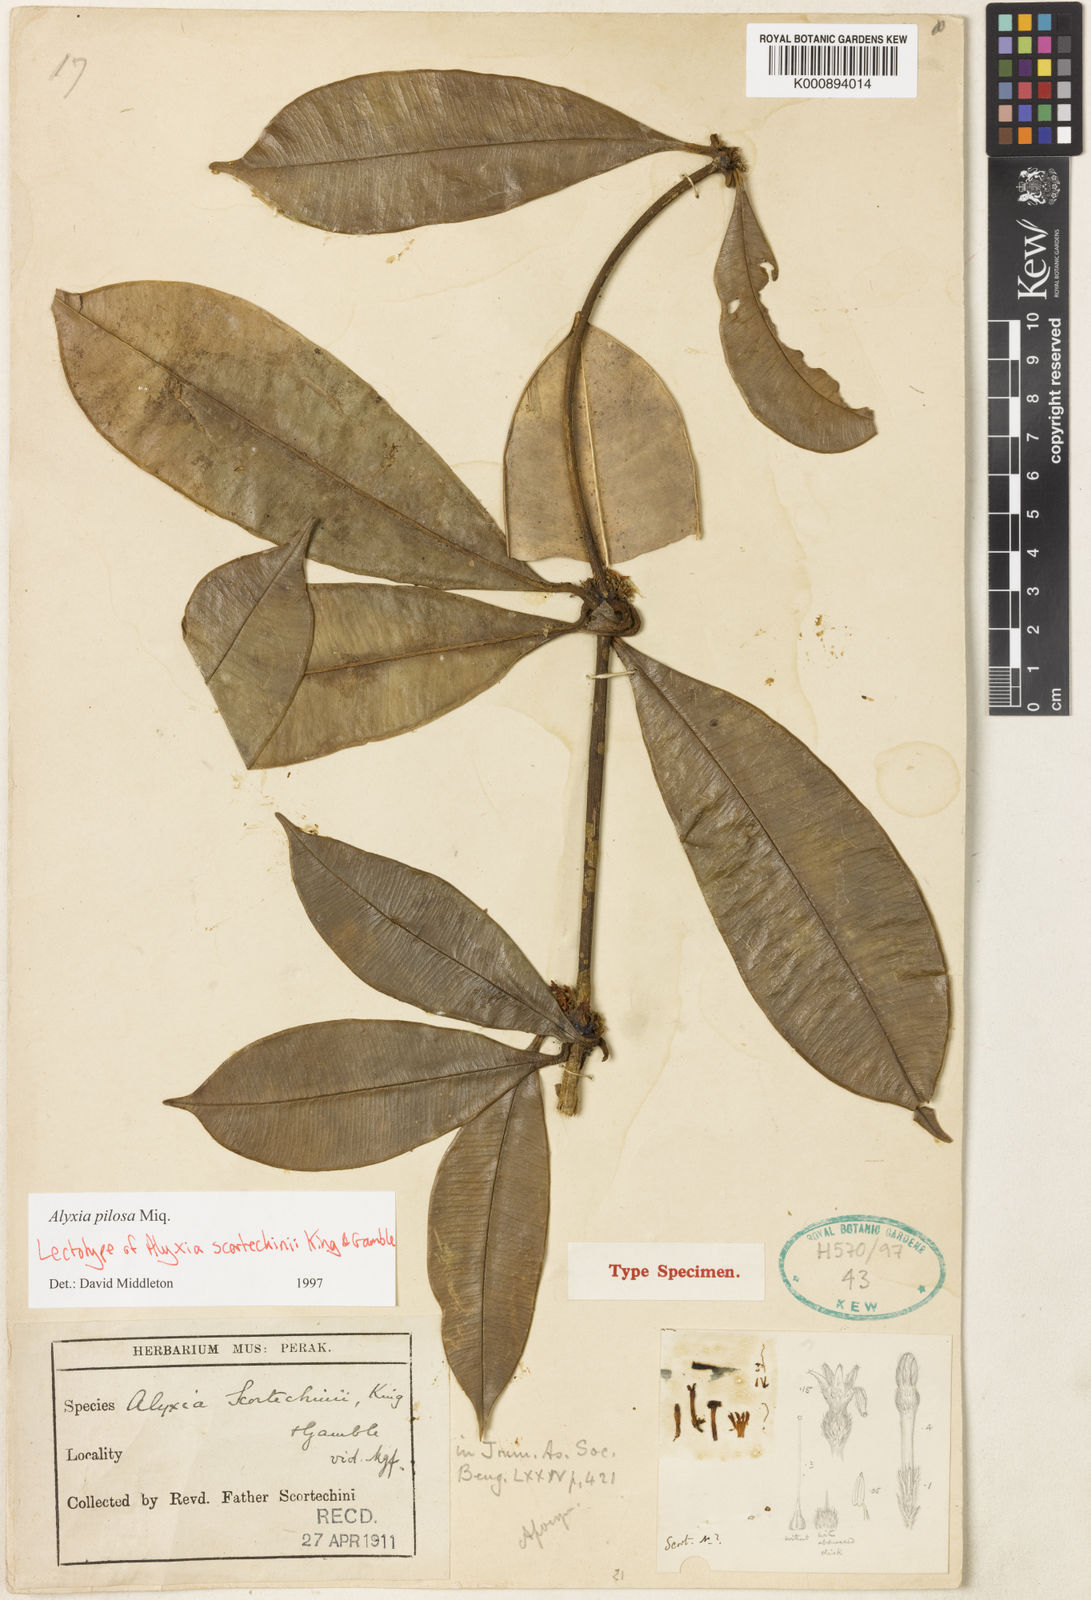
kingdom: Plantae
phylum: Tracheophyta
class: Magnoliopsida
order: Gentianales
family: Apocynaceae
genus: Alyxia
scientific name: Alyxia pilosa
